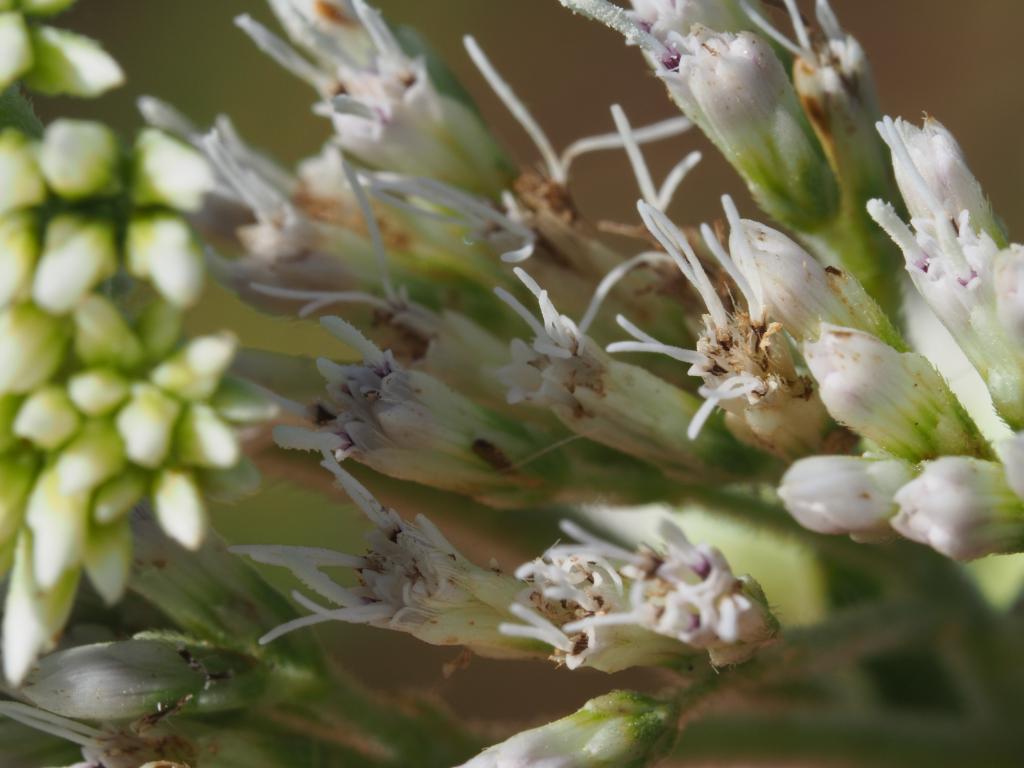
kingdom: Plantae
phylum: Tracheophyta
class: Magnoliopsida
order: Asterales
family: Asteraceae
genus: Eupatorium
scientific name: Eupatorium formosanum
